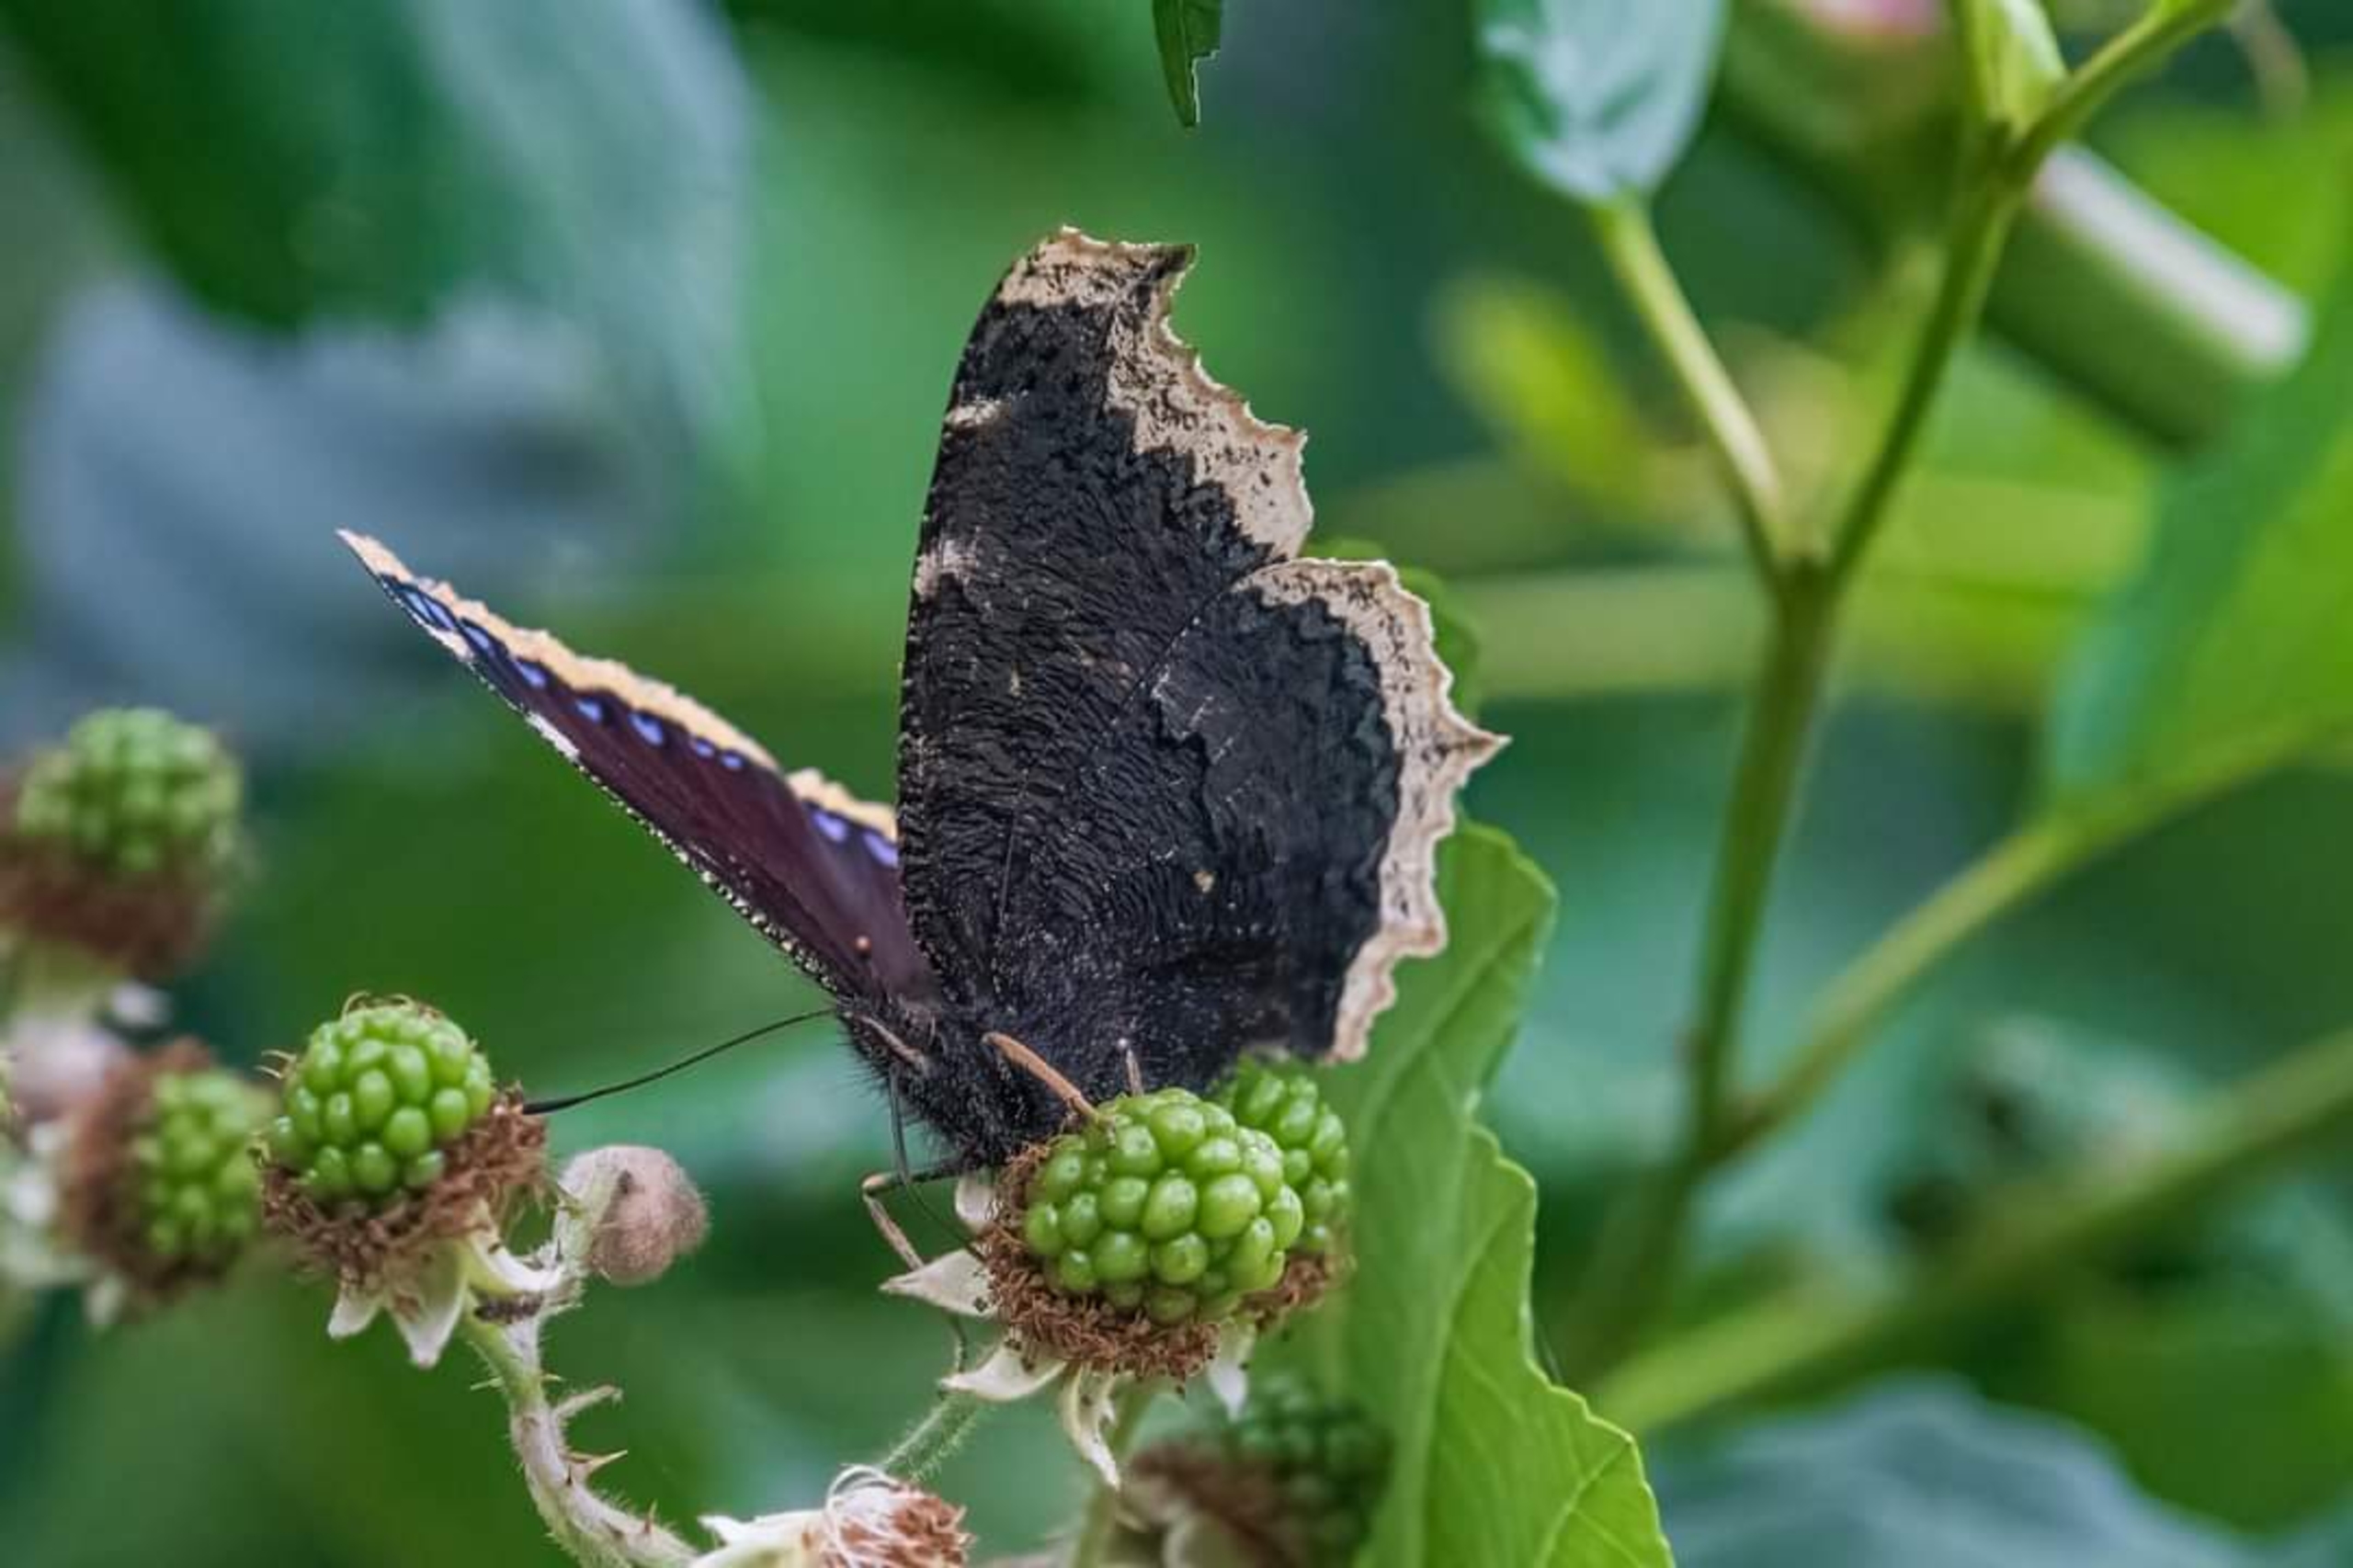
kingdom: Animalia
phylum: Arthropoda
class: Insecta
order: Lepidoptera
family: Nymphalidae
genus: Nymphalis
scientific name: Nymphalis antiopa
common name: Sørgekåbe
